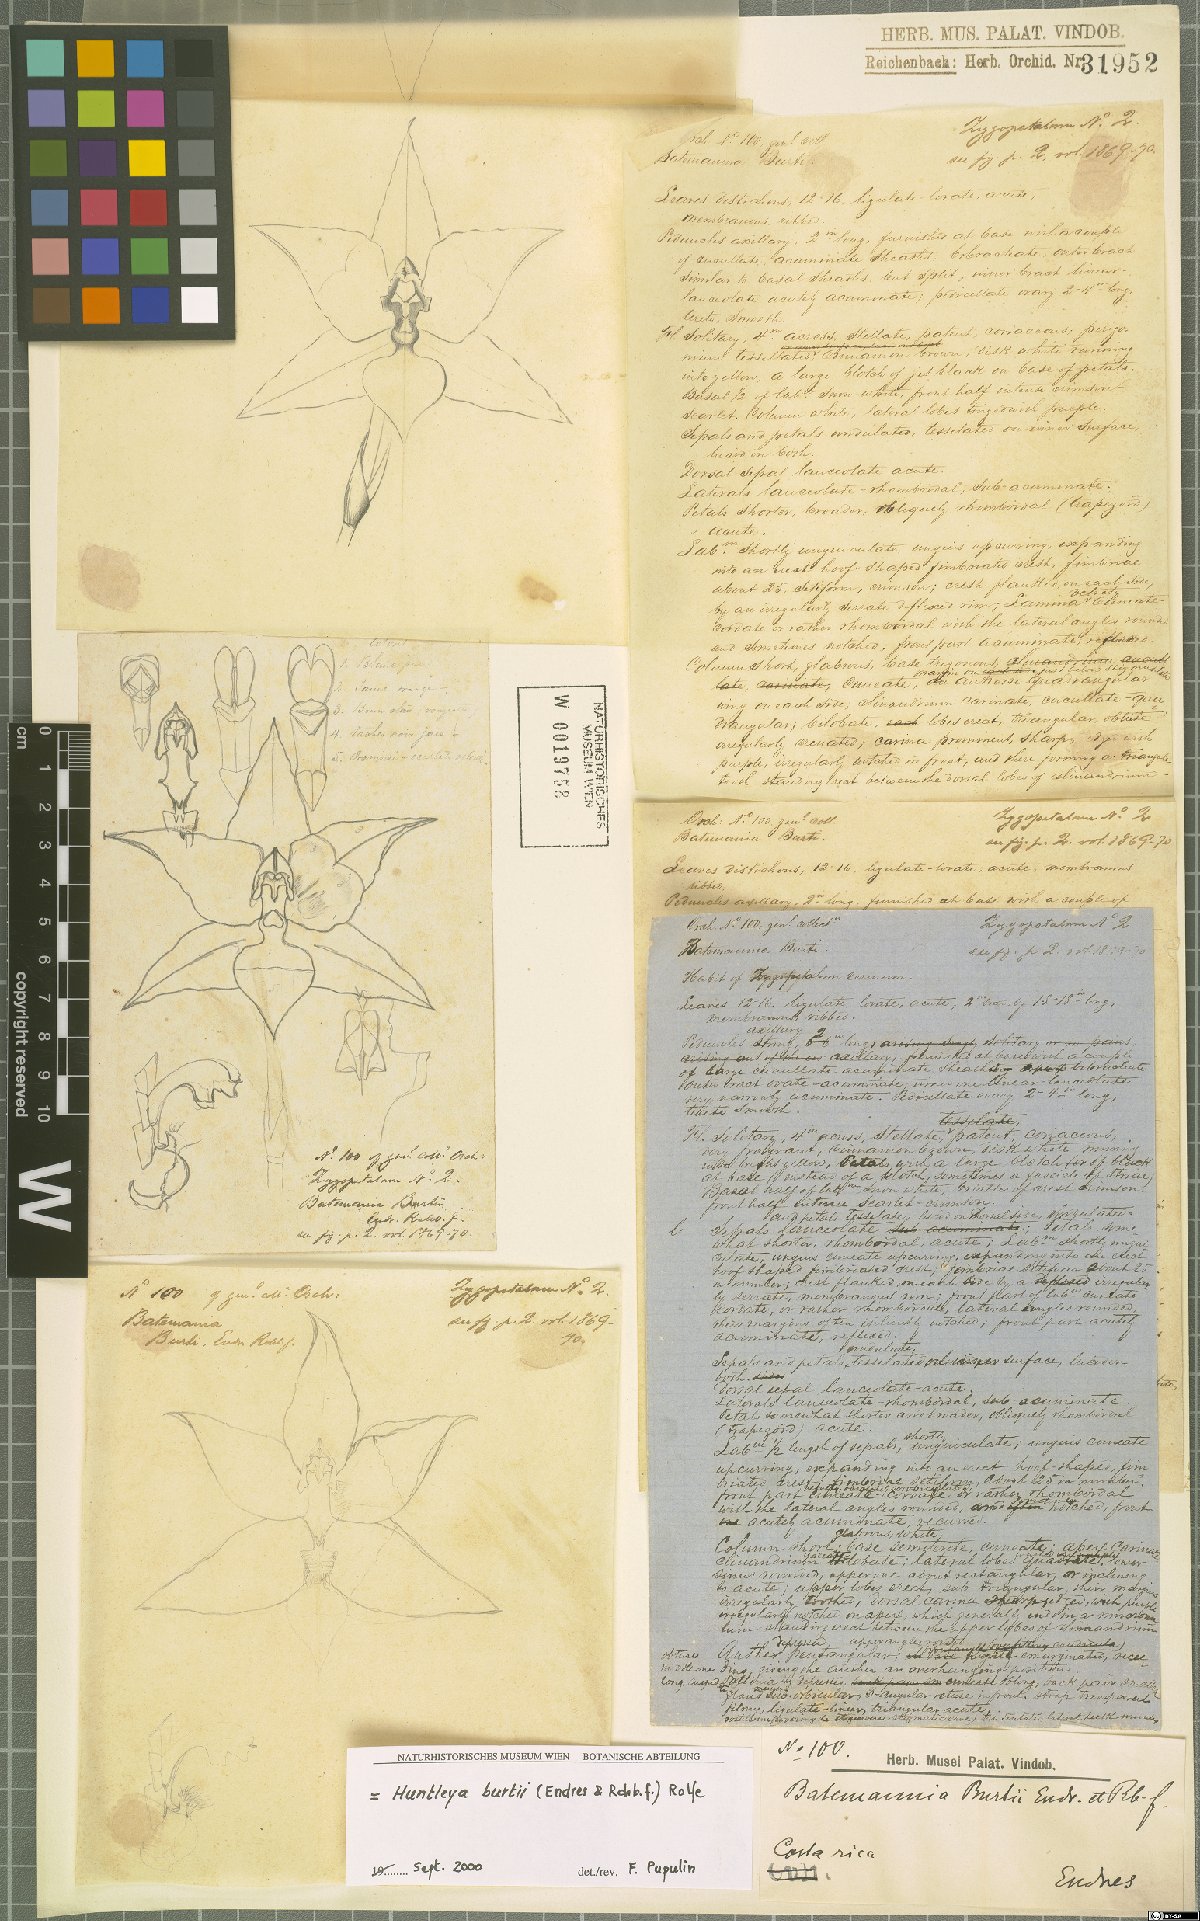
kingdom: Plantae
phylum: Tracheophyta
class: Liliopsida
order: Asparagales
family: Orchidaceae
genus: Huntleya
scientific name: Huntleya burtii
